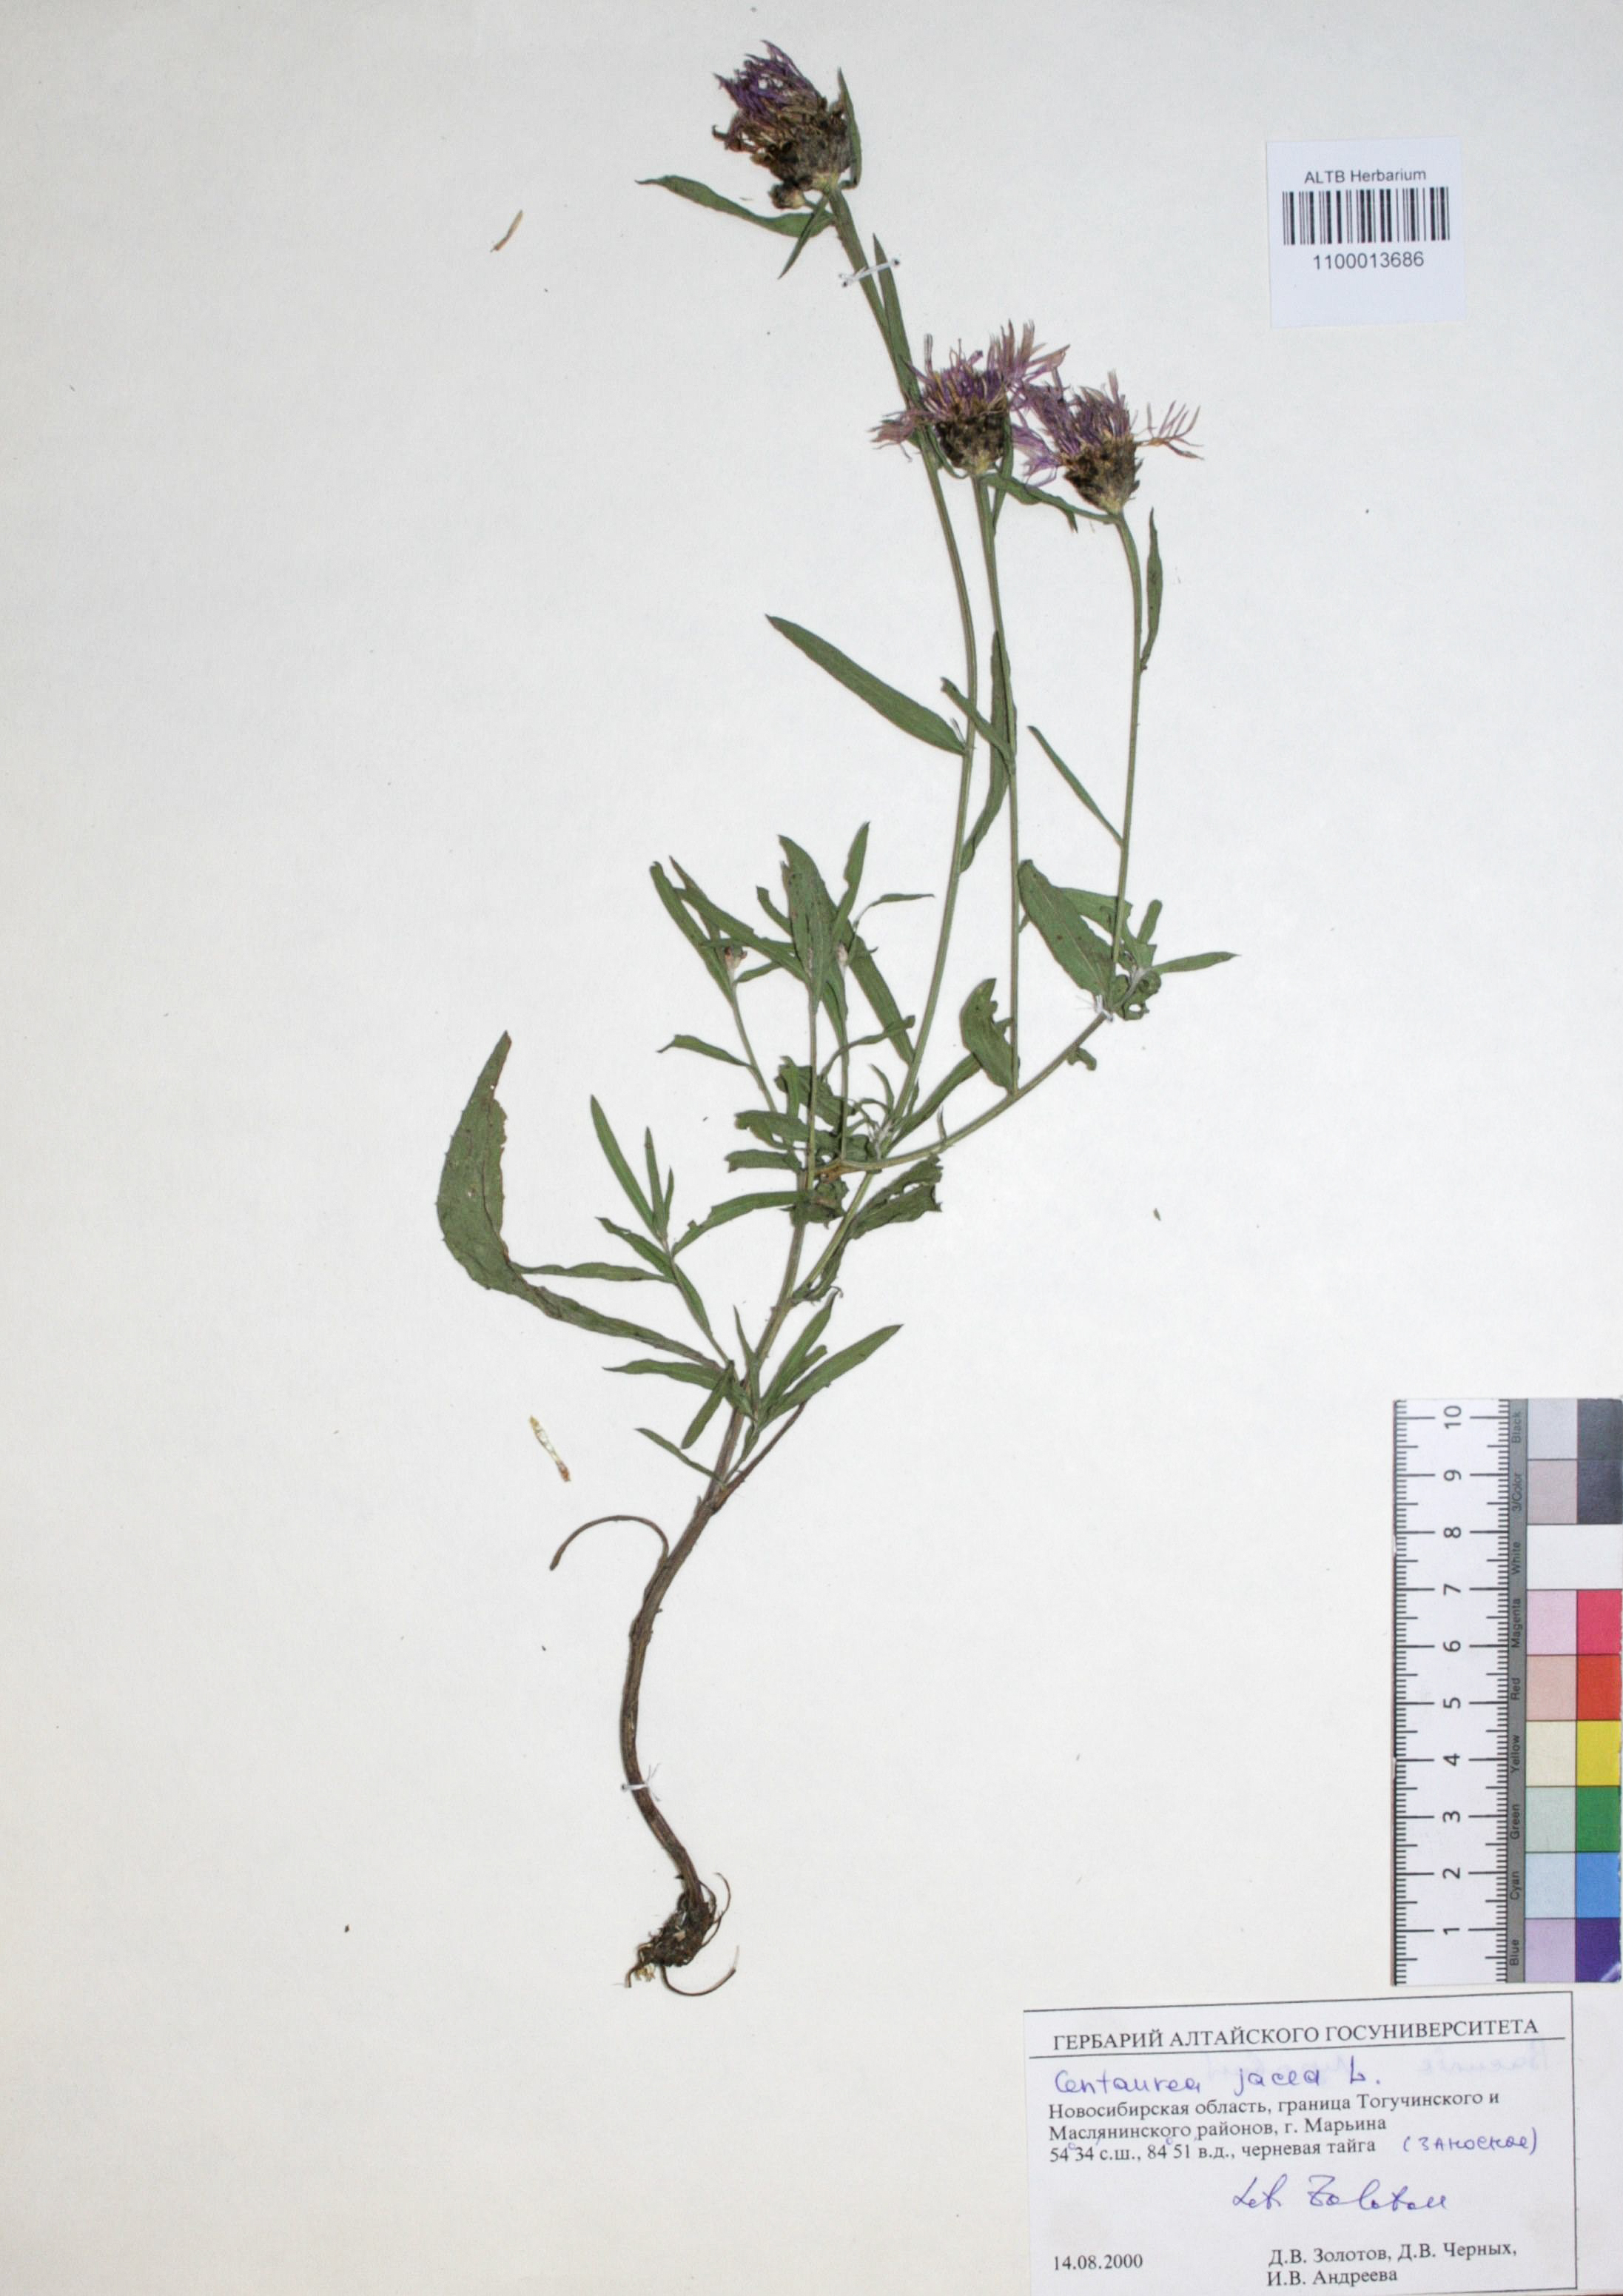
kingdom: Plantae
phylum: Tracheophyta
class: Magnoliopsida
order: Asterales
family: Asteraceae
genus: Centaurea
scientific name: Centaurea jacea
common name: Brown knapweed
